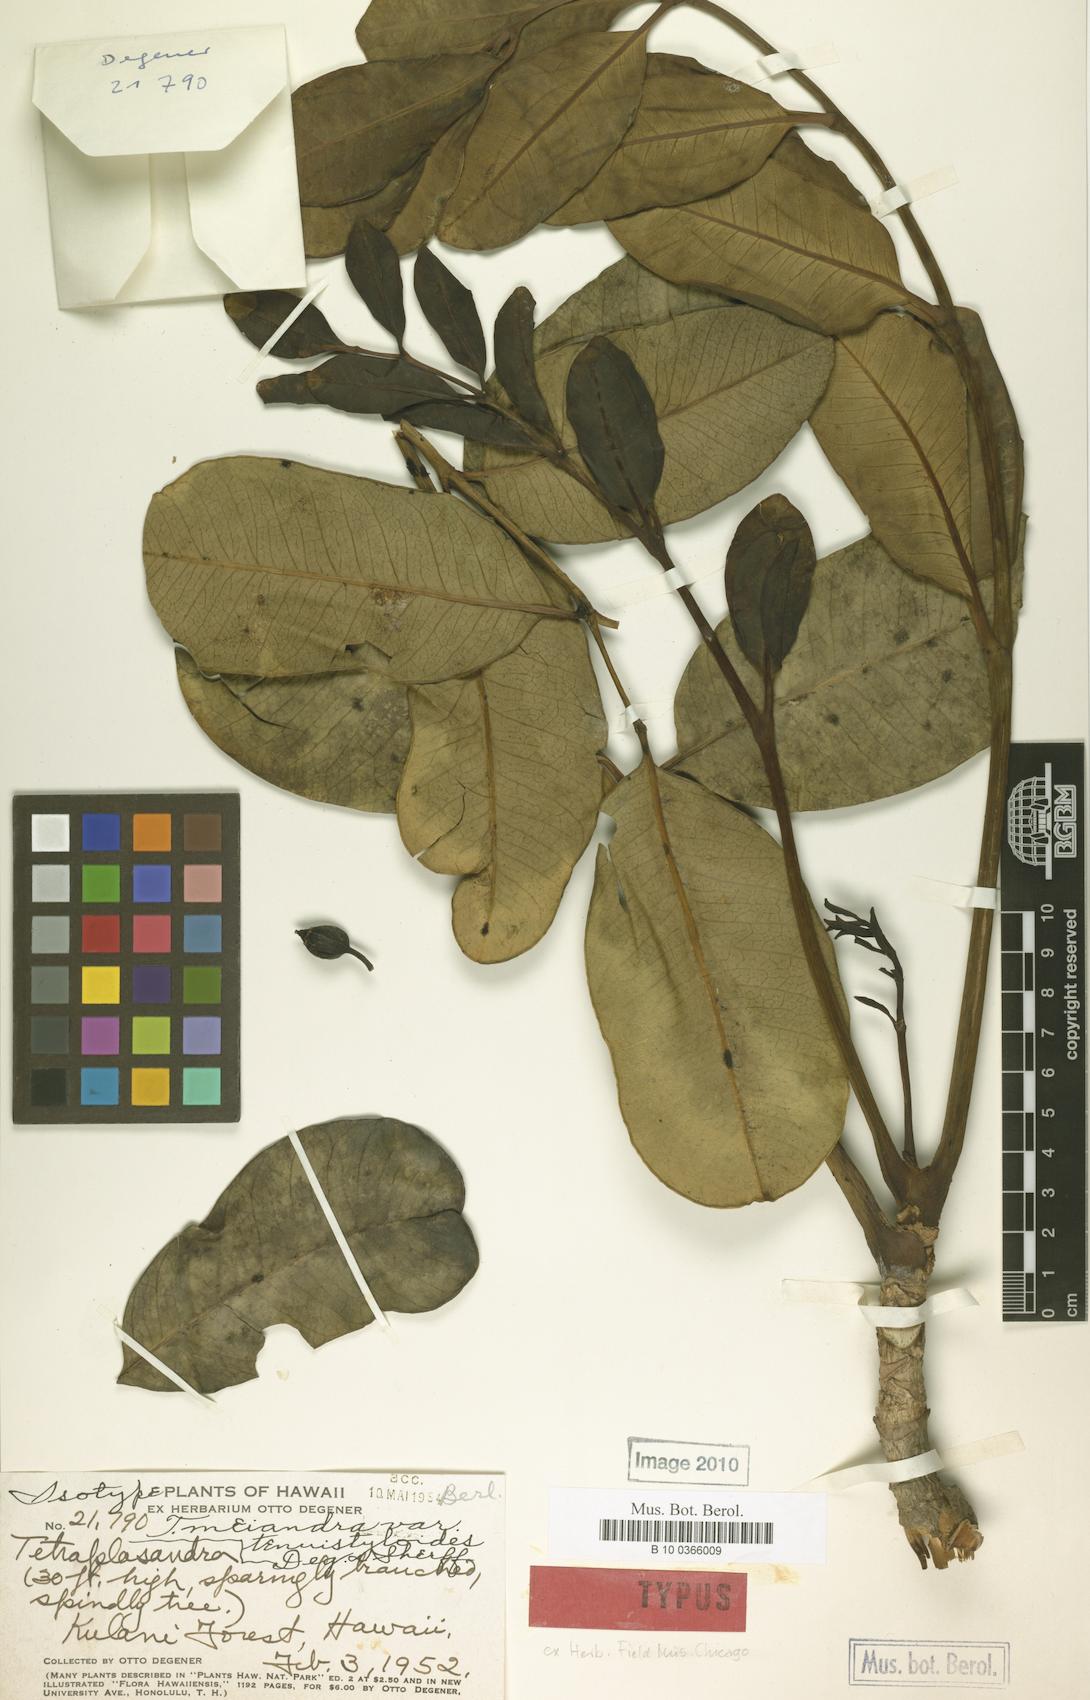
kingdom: Plantae
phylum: Tracheophyta
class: Magnoliopsida
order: Apiales
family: Araliaceae
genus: Polyscias
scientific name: Polyscias oahuensis
